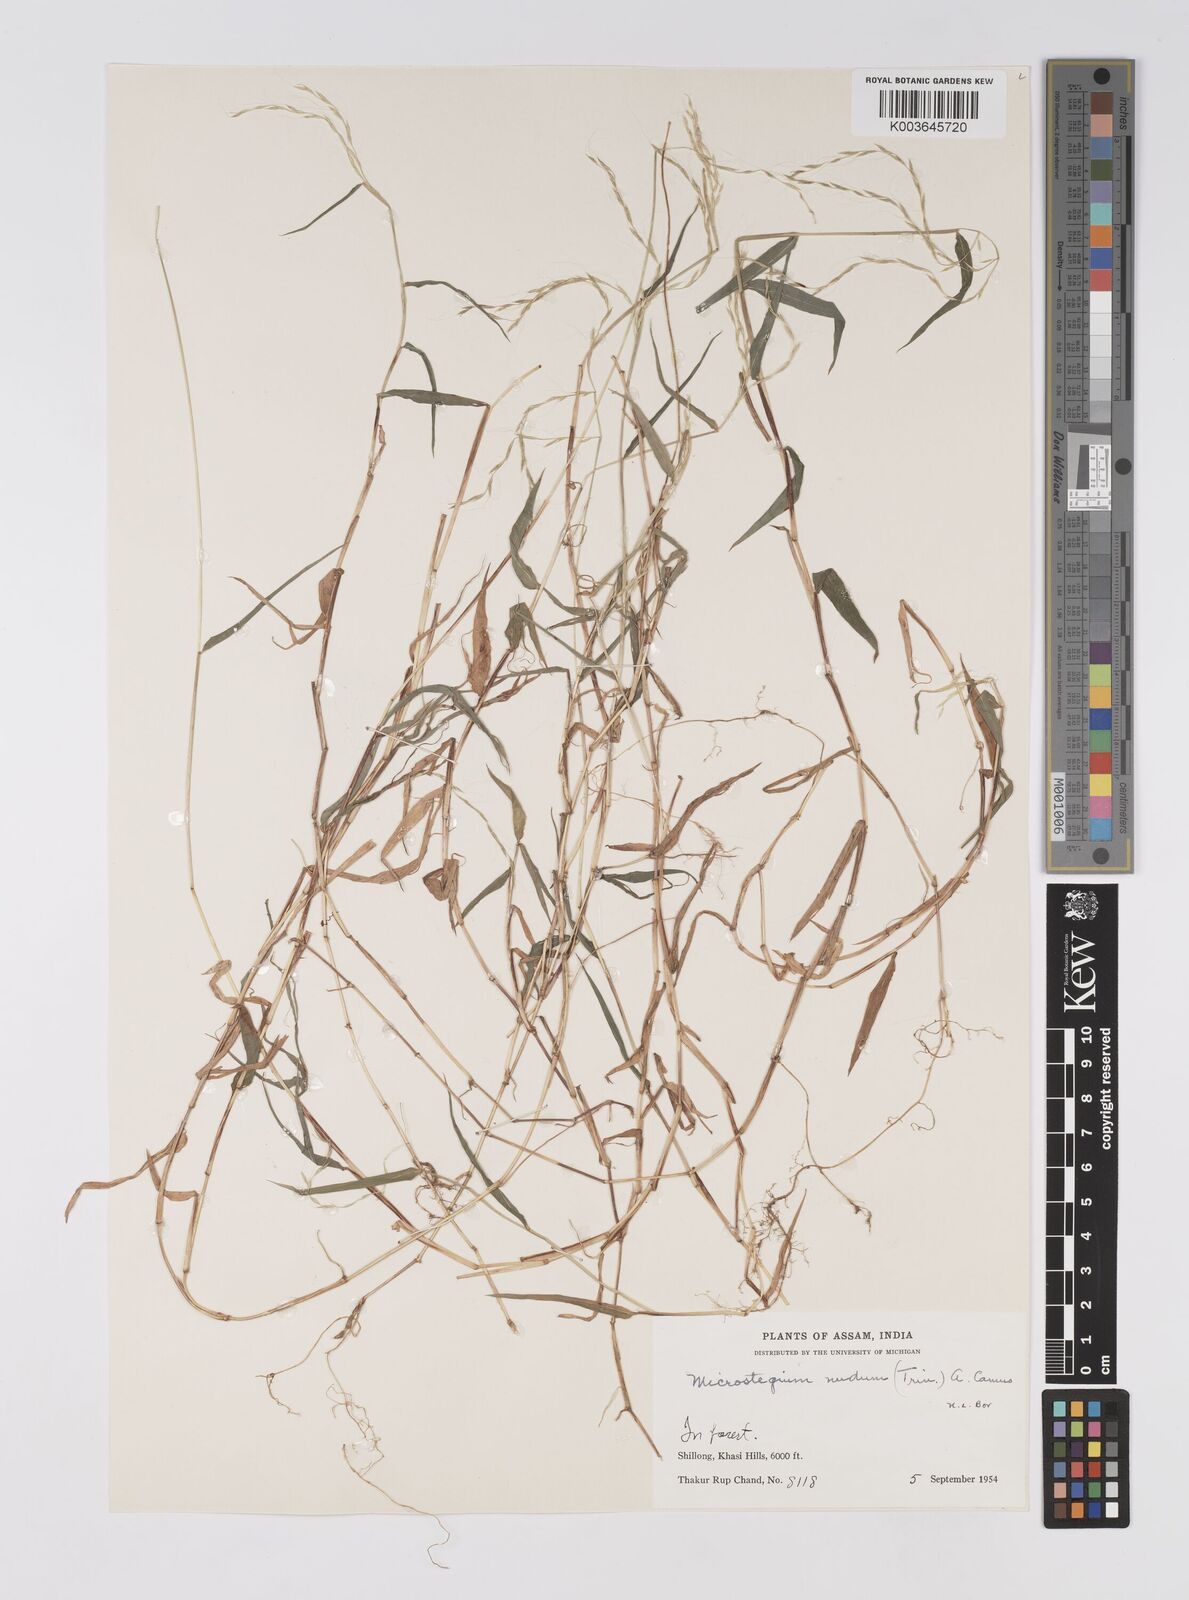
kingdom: Plantae
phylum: Tracheophyta
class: Liliopsida
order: Poales
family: Poaceae
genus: Microstegium
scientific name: Microstegium nudum
